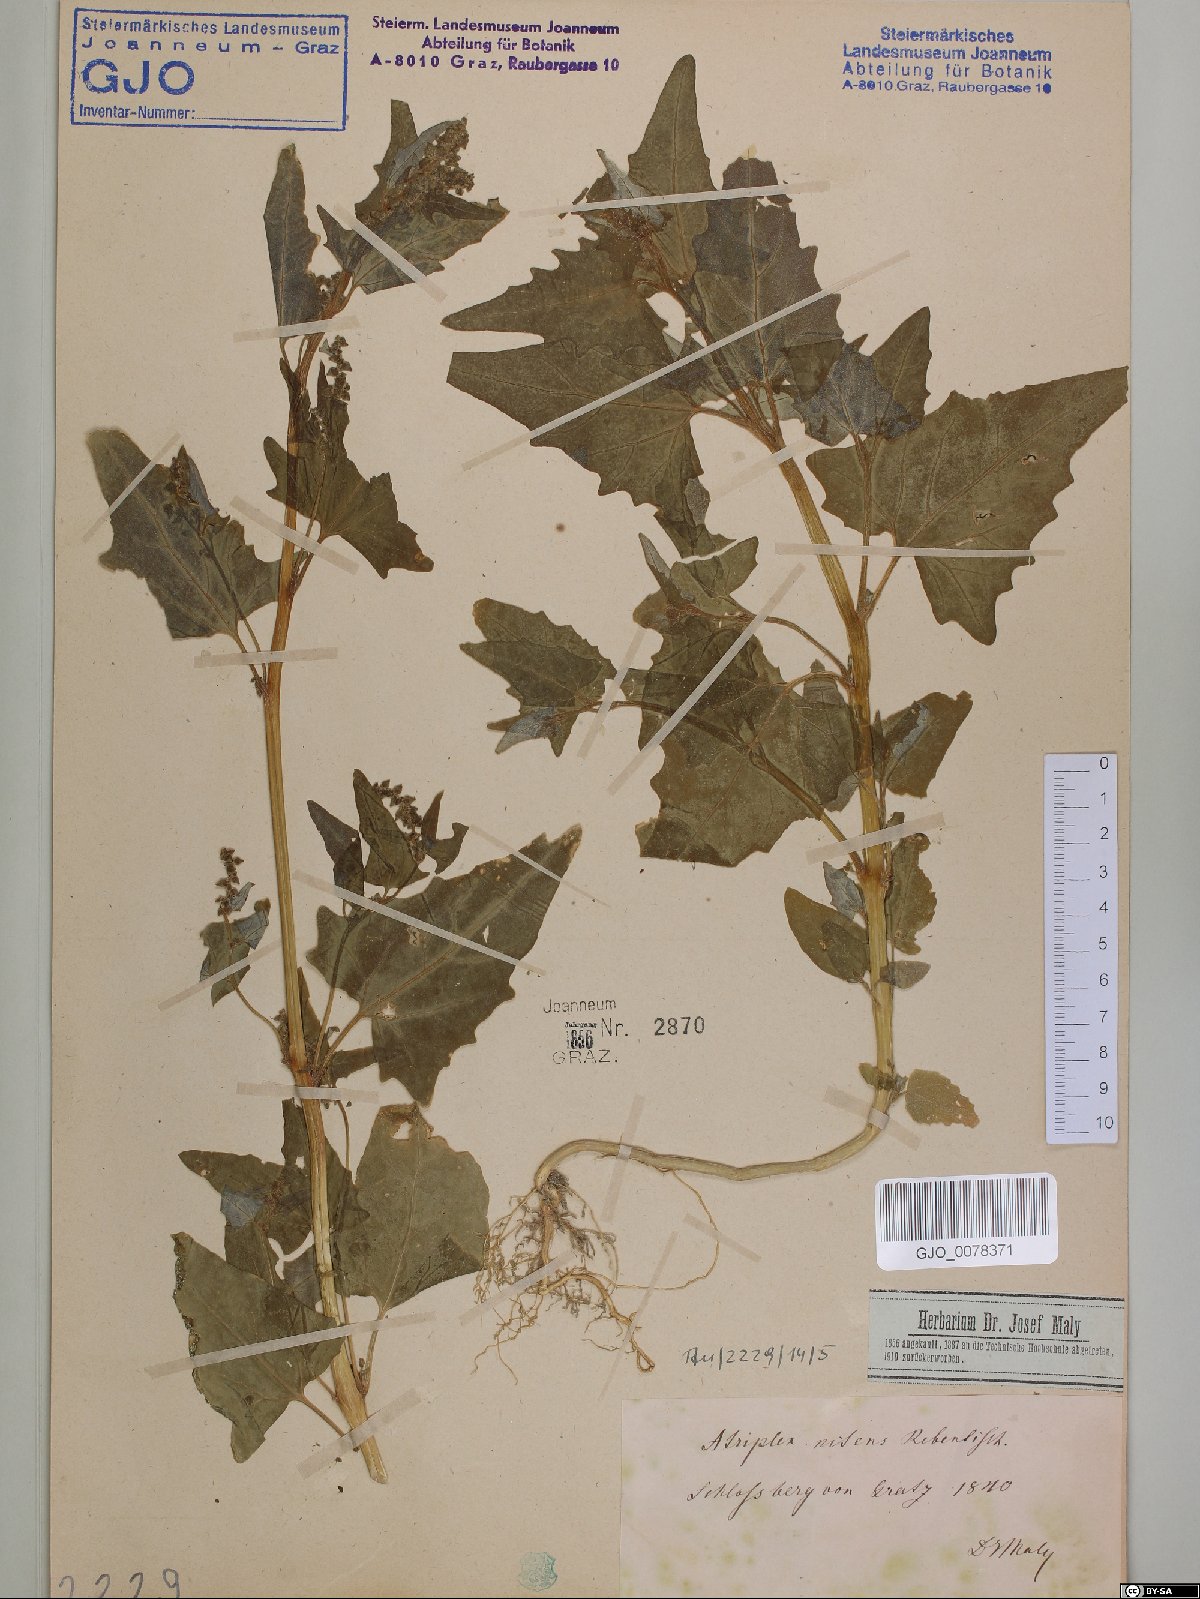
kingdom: Plantae
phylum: Tracheophyta
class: Magnoliopsida
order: Caryophyllales
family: Amaranthaceae
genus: Atriplex
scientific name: Atriplex sagittata
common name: Purple orache
